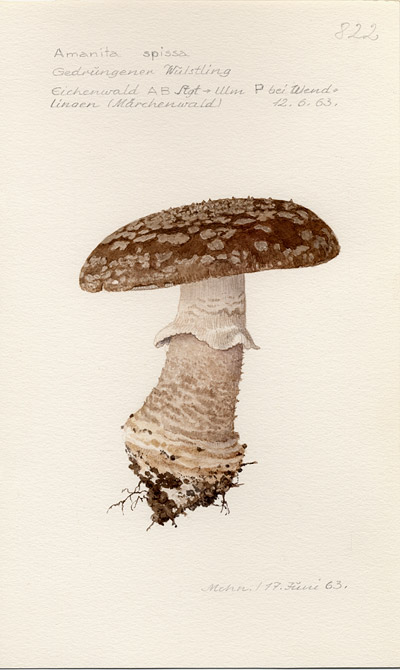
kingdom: Fungi
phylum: Basidiomycota
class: Agaricomycetes
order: Agaricales
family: Amanitaceae
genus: Amanita
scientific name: Amanita excelsa
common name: European false blusher
